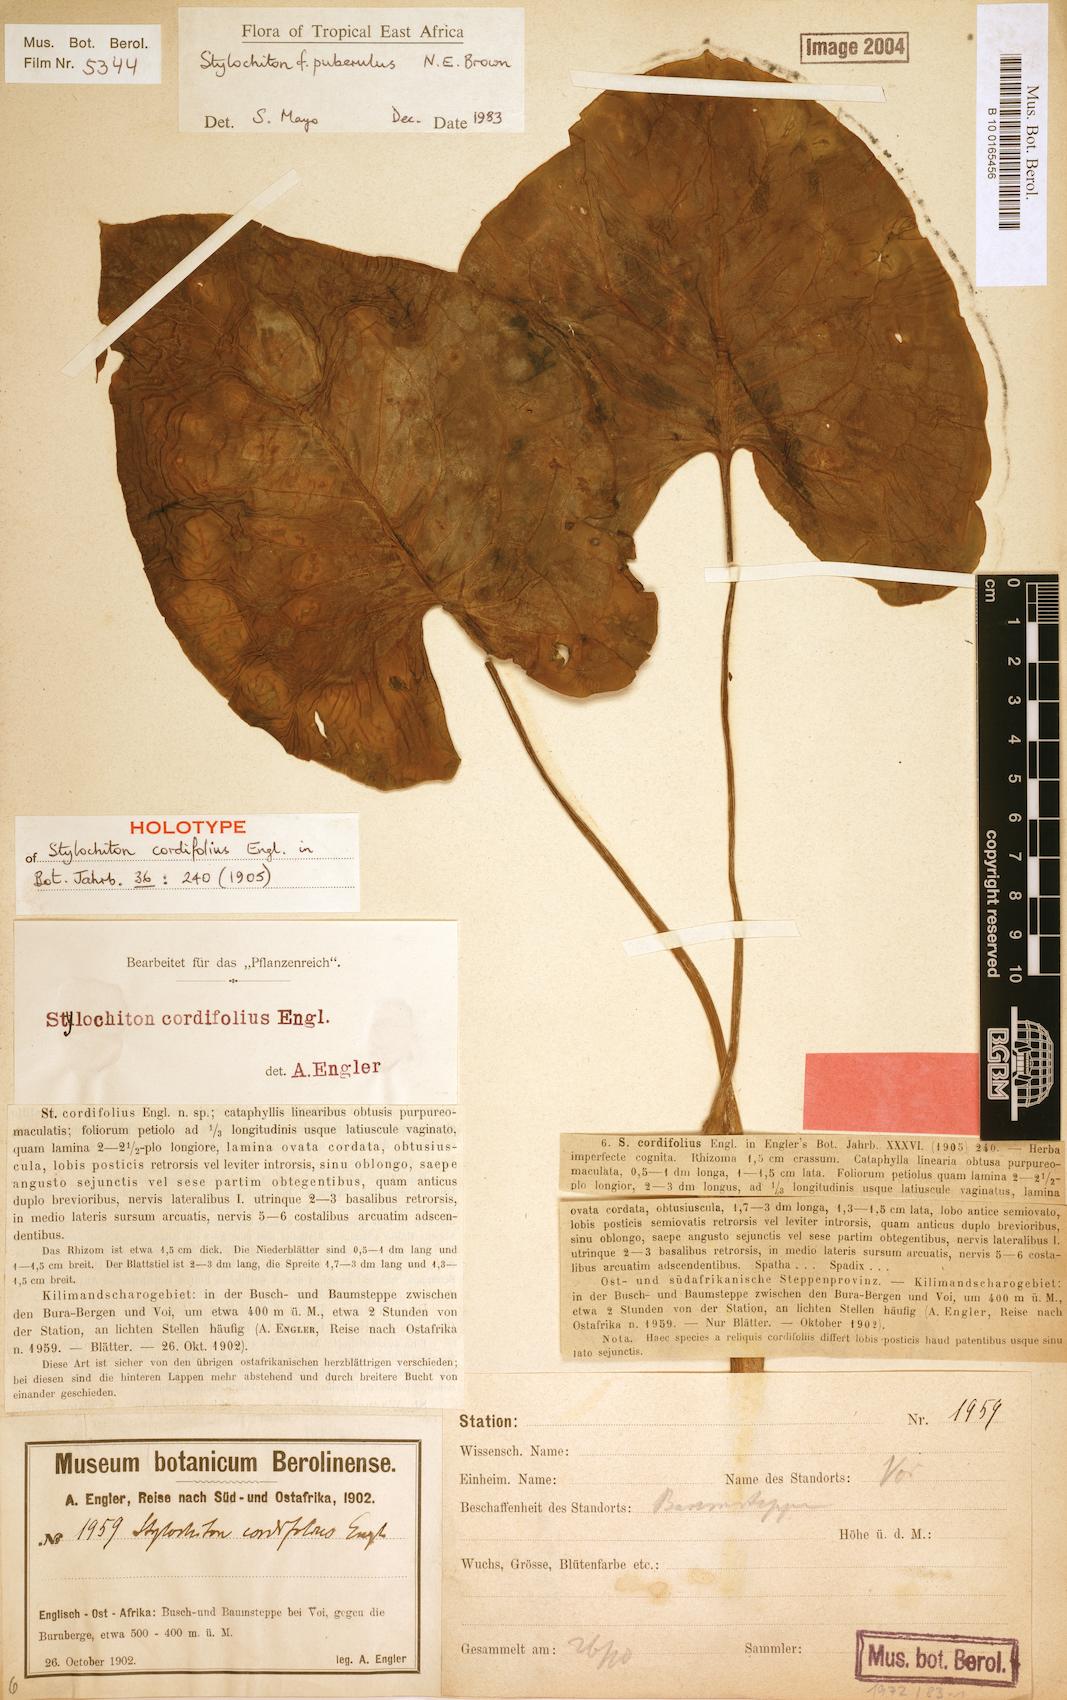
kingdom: Plantae
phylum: Tracheophyta
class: Liliopsida
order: Alismatales
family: Araceae
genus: Stylochiton
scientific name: Stylochiton puberulus
